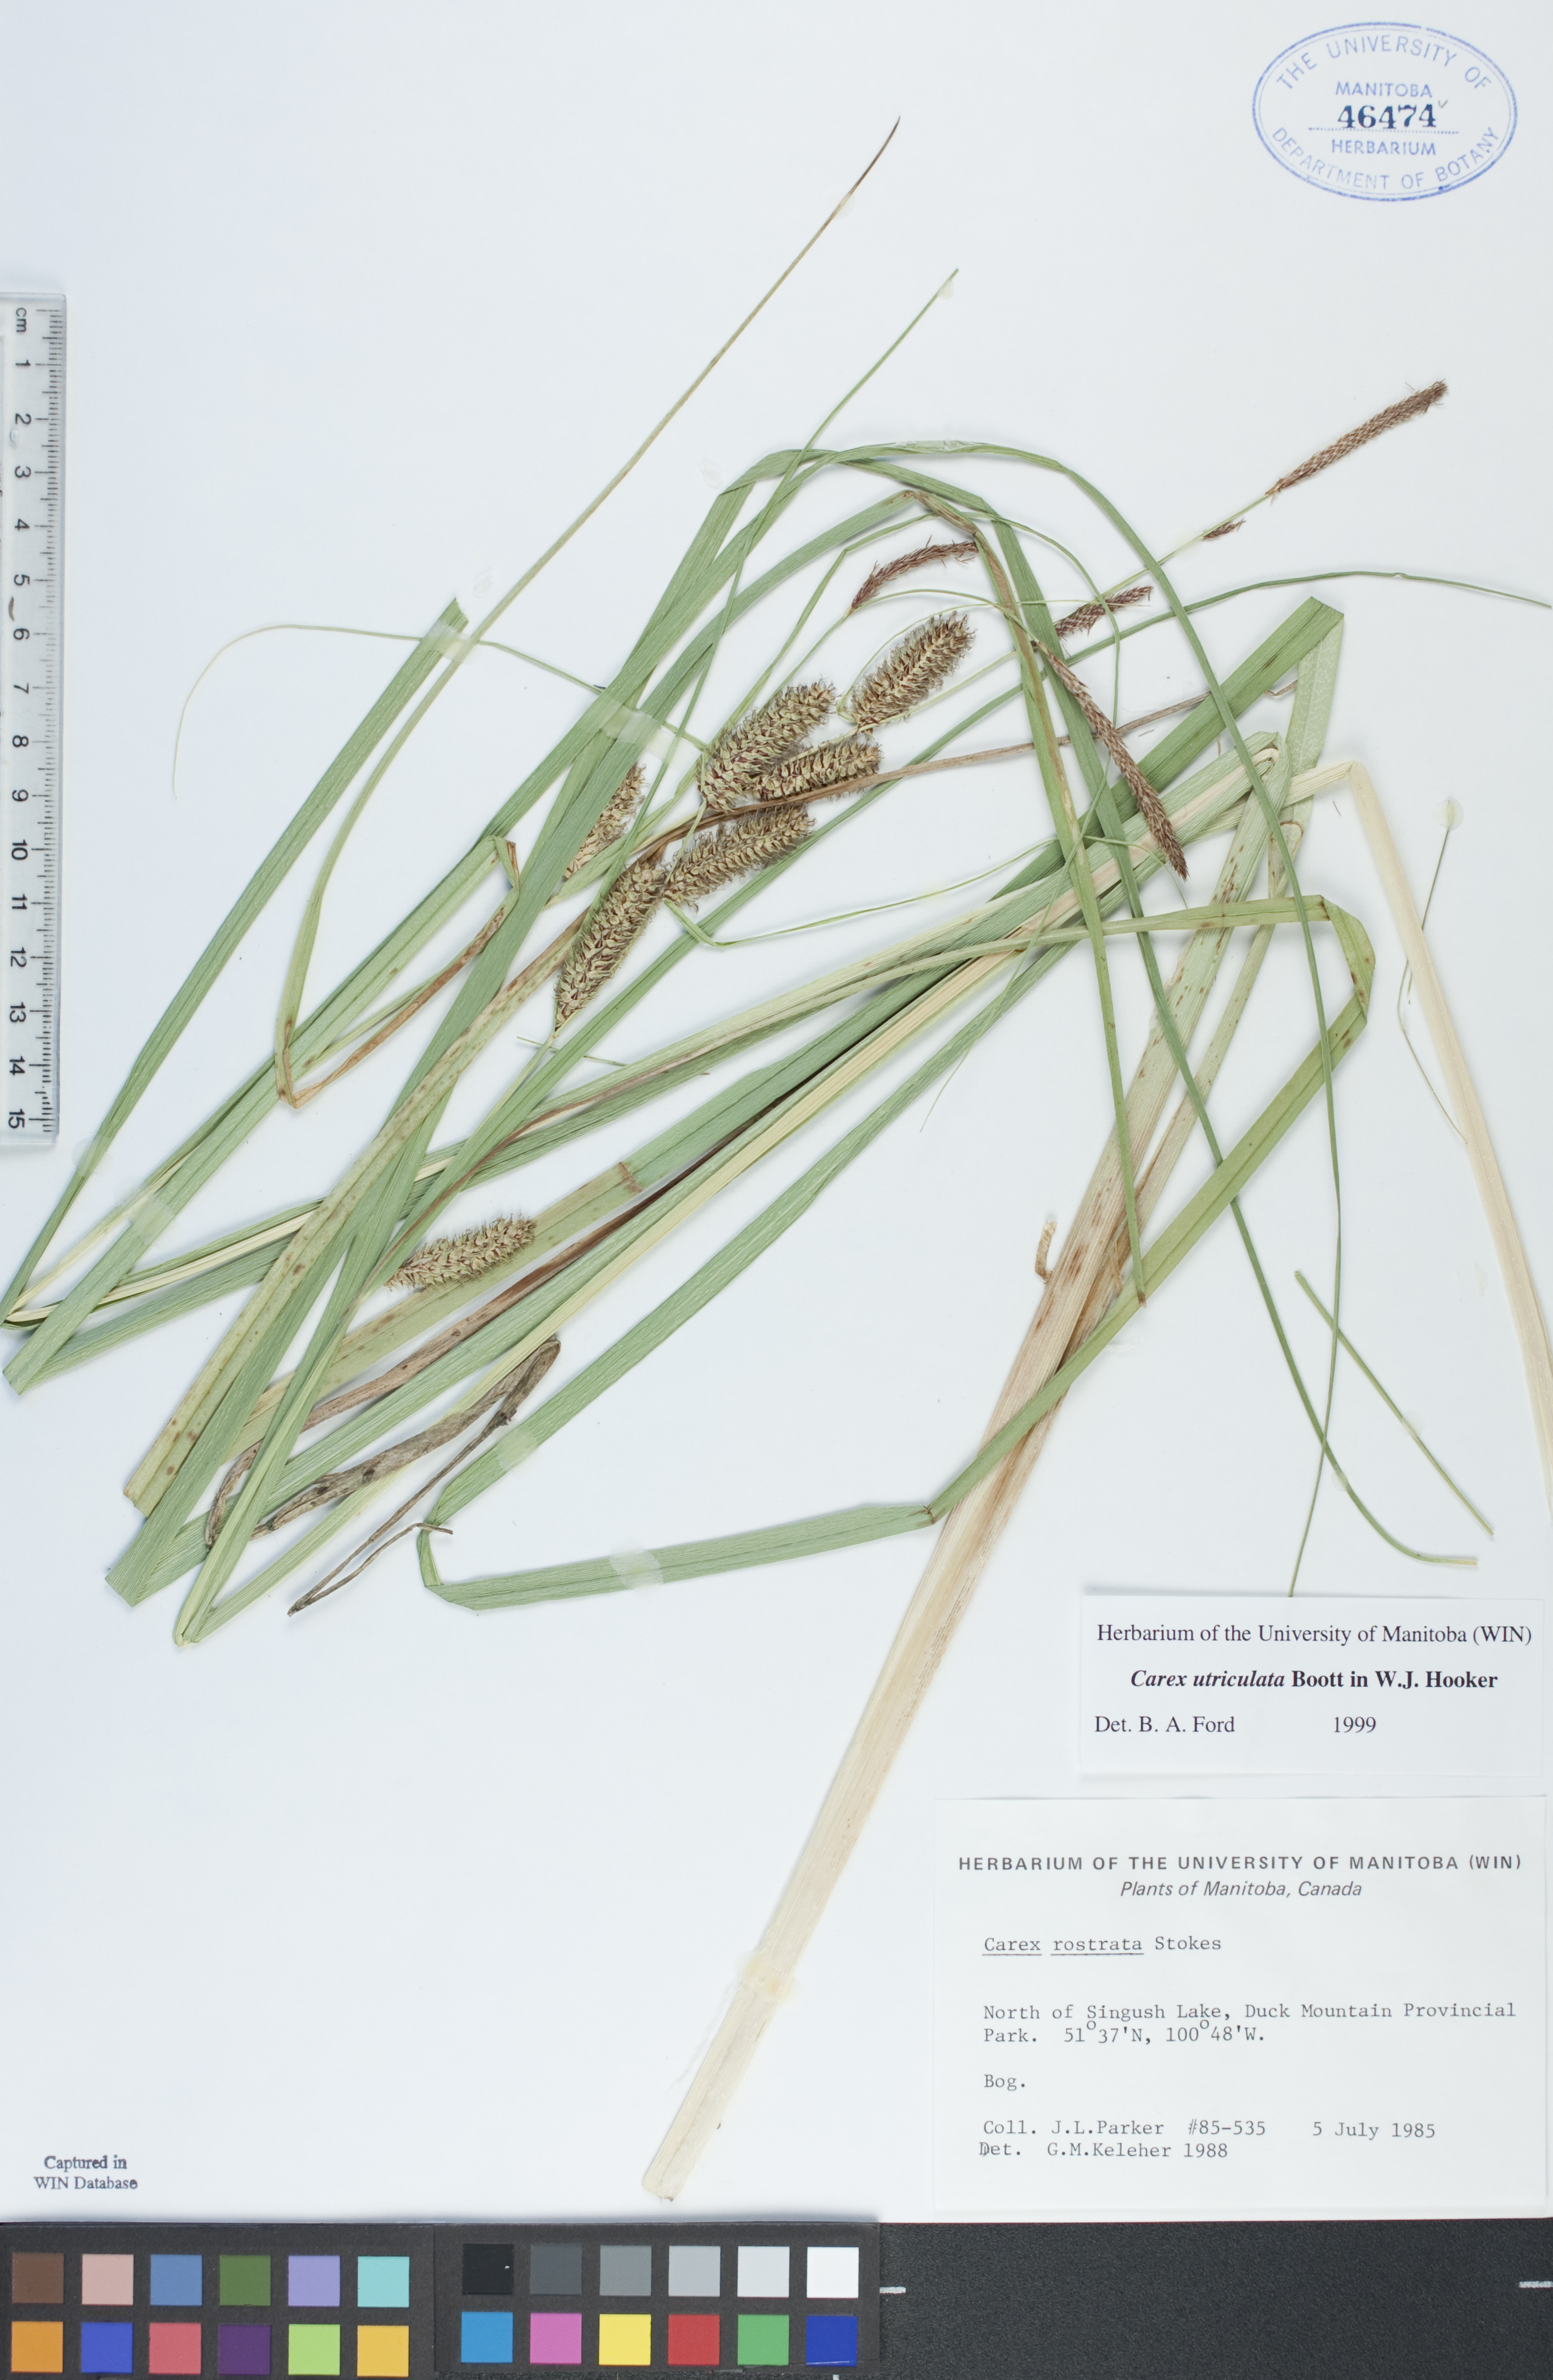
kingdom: Plantae
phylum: Tracheophyta
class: Liliopsida
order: Poales
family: Cyperaceae
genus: Carex
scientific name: Carex utriculata
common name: Beaked sedge
